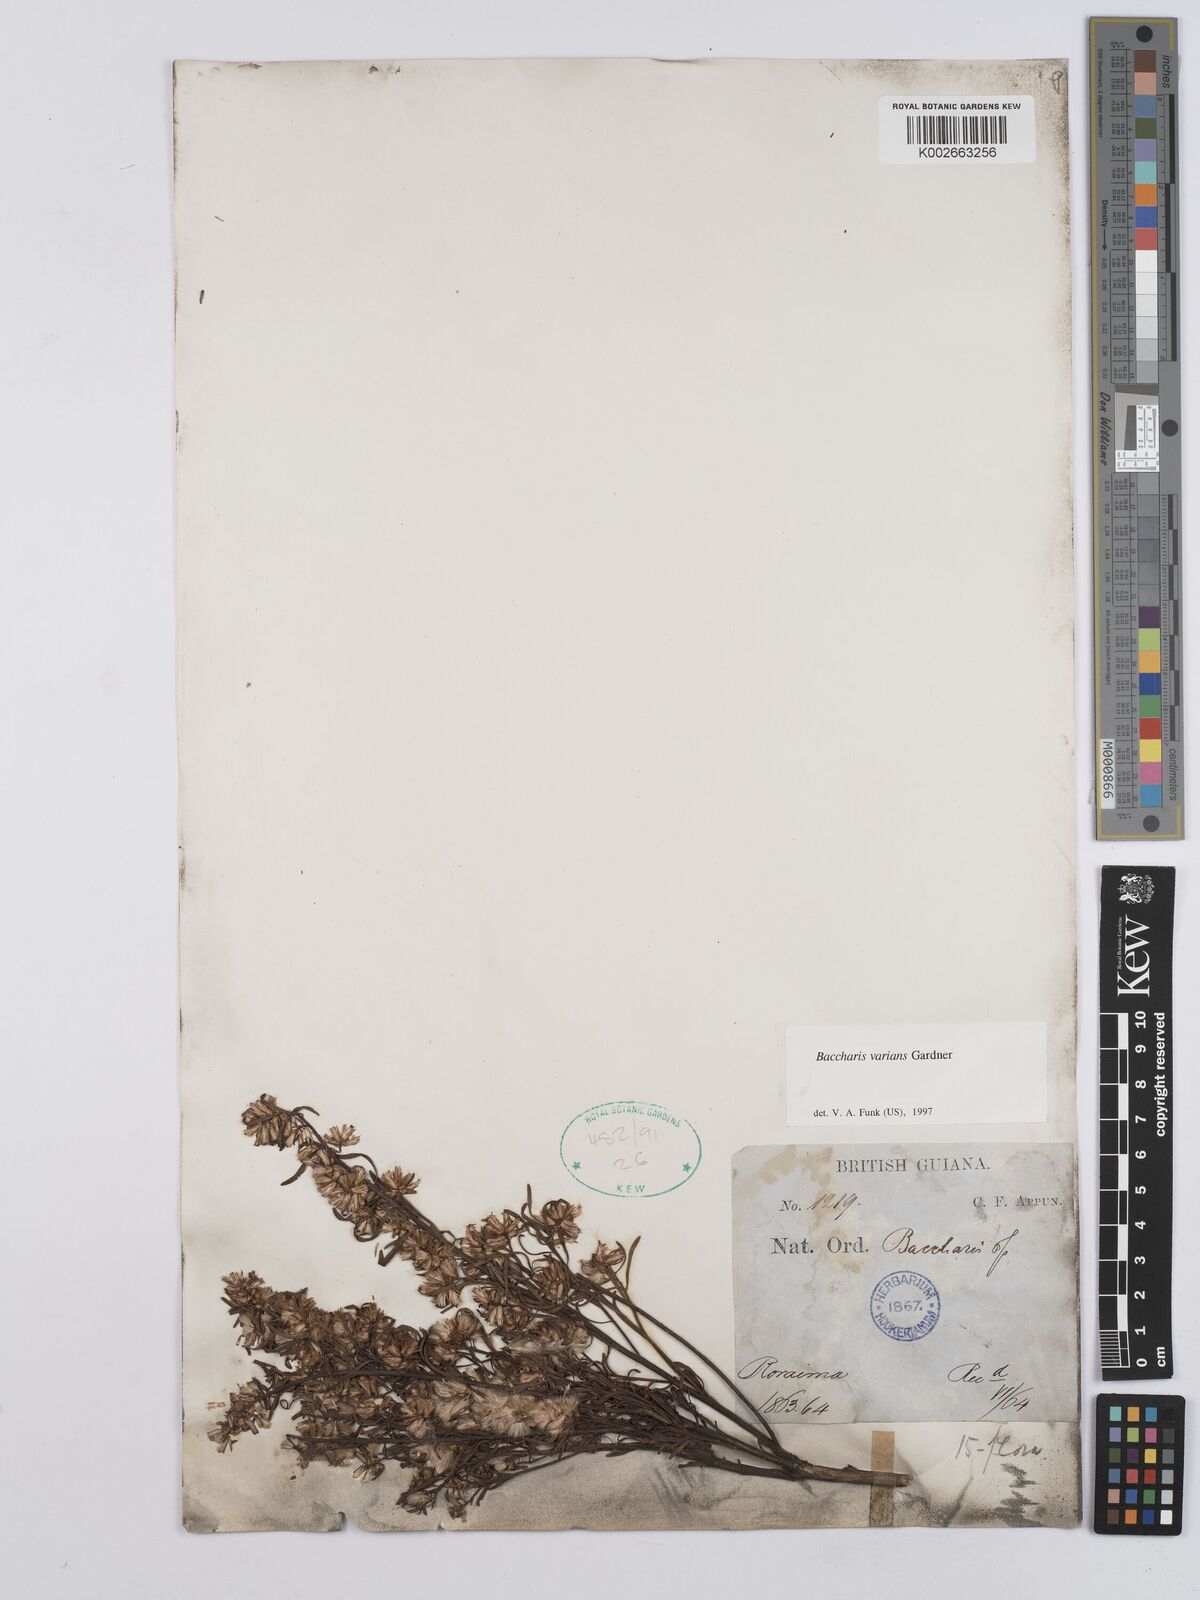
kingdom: Plantae
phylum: Tracheophyta
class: Magnoliopsida
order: Asterales
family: Asteraceae
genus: Baccharis
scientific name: Baccharis varians
